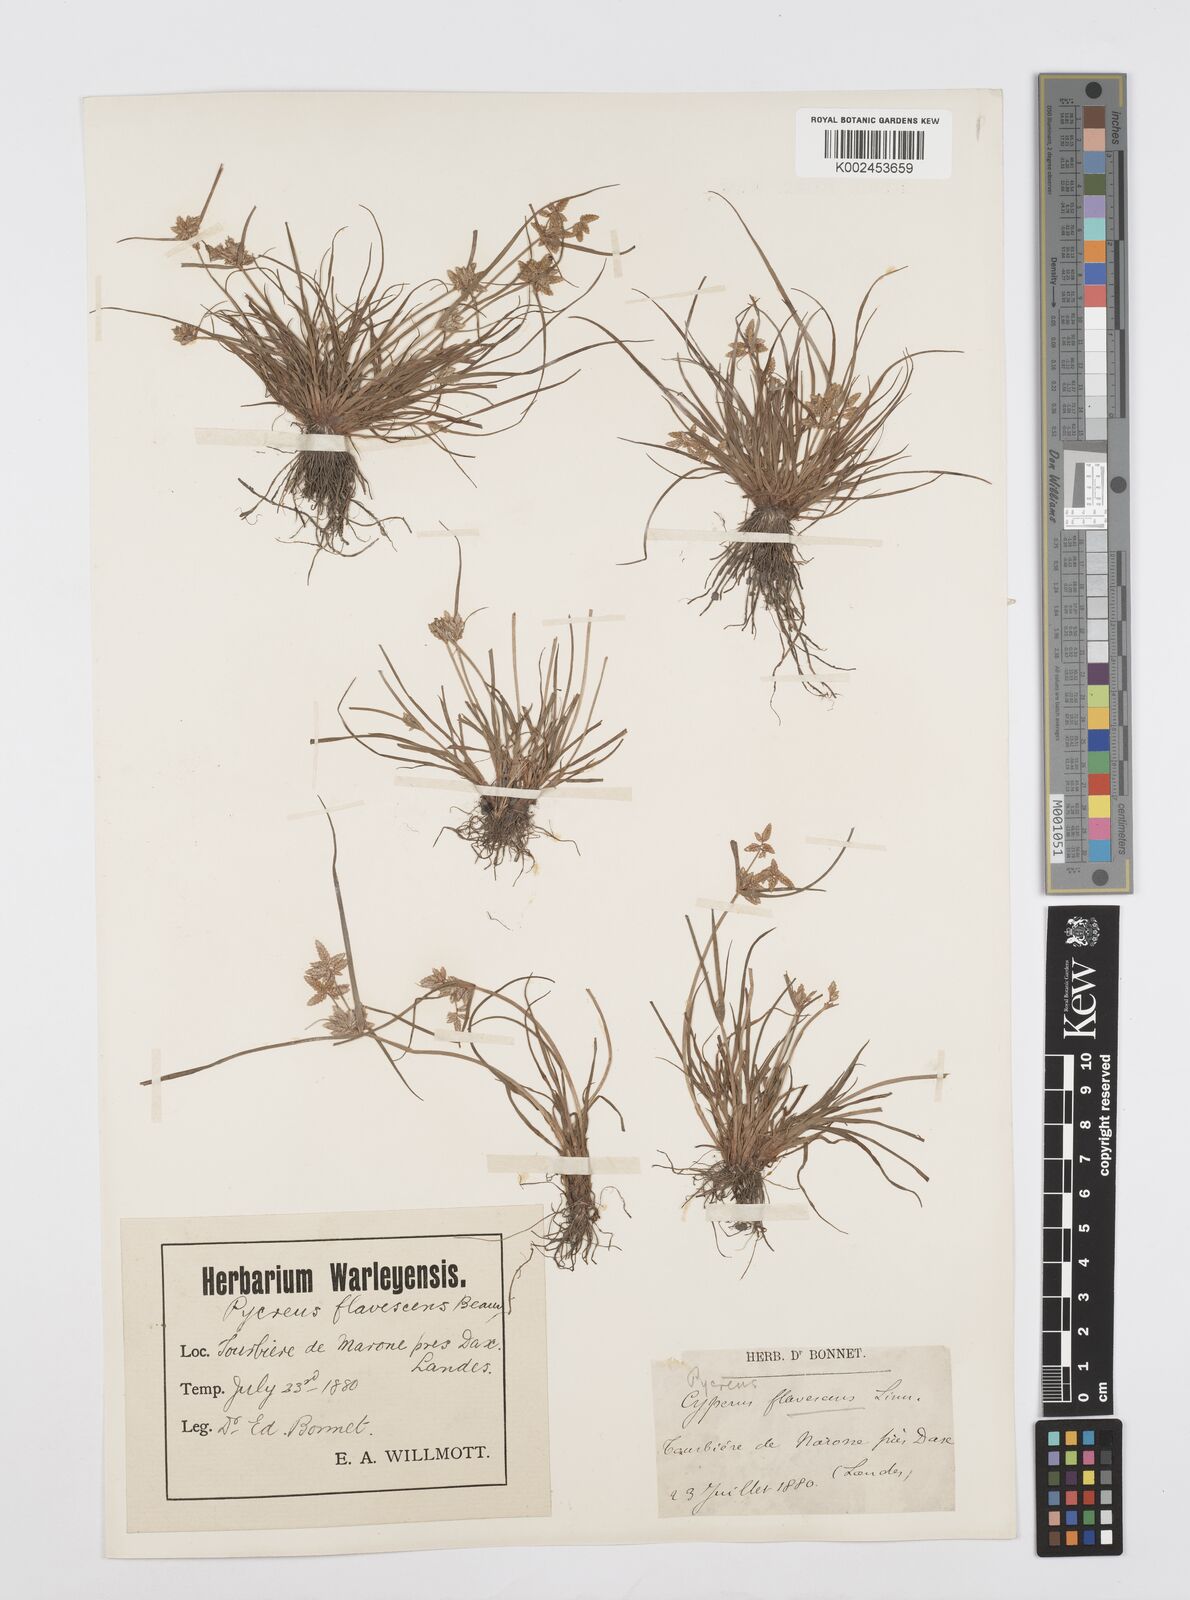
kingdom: Plantae
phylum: Tracheophyta
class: Liliopsida
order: Poales
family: Cyperaceae
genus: Cyperus
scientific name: Cyperus flavescens
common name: Yellow galingale
